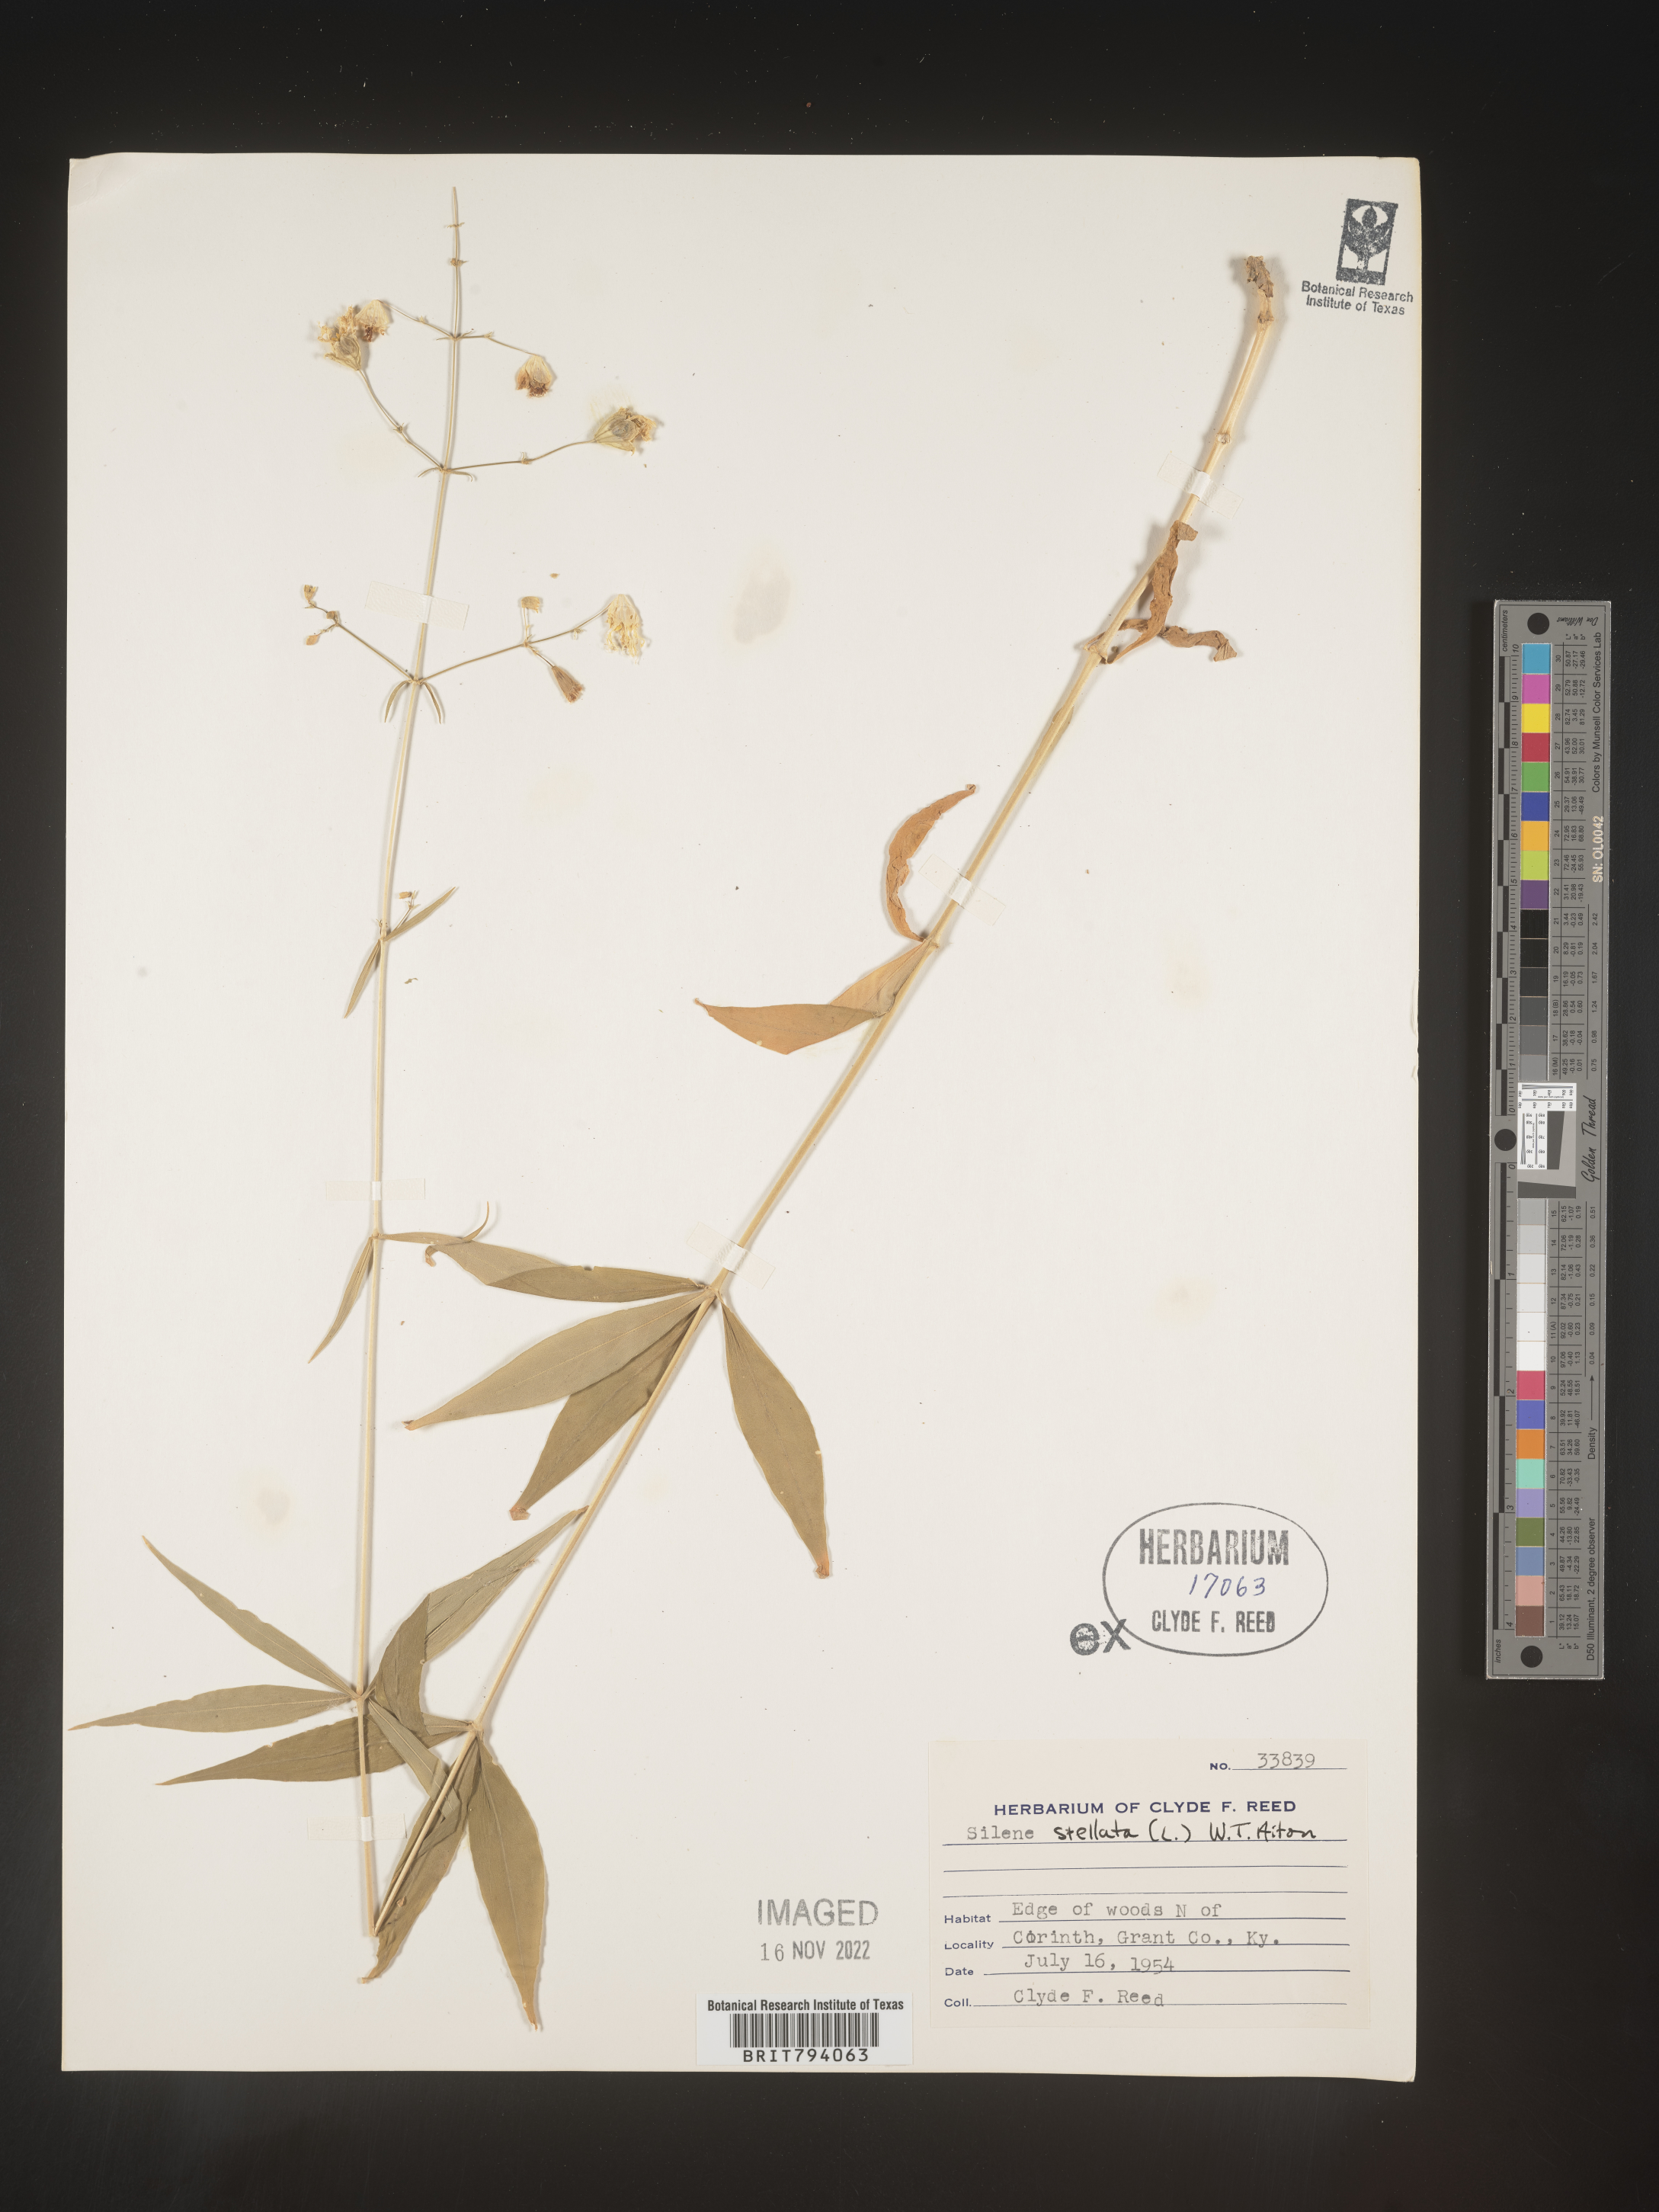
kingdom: Plantae
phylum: Tracheophyta
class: Magnoliopsida
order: Caryophyllales
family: Caryophyllaceae
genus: Silene
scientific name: Silene stellata
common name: Starry campion
